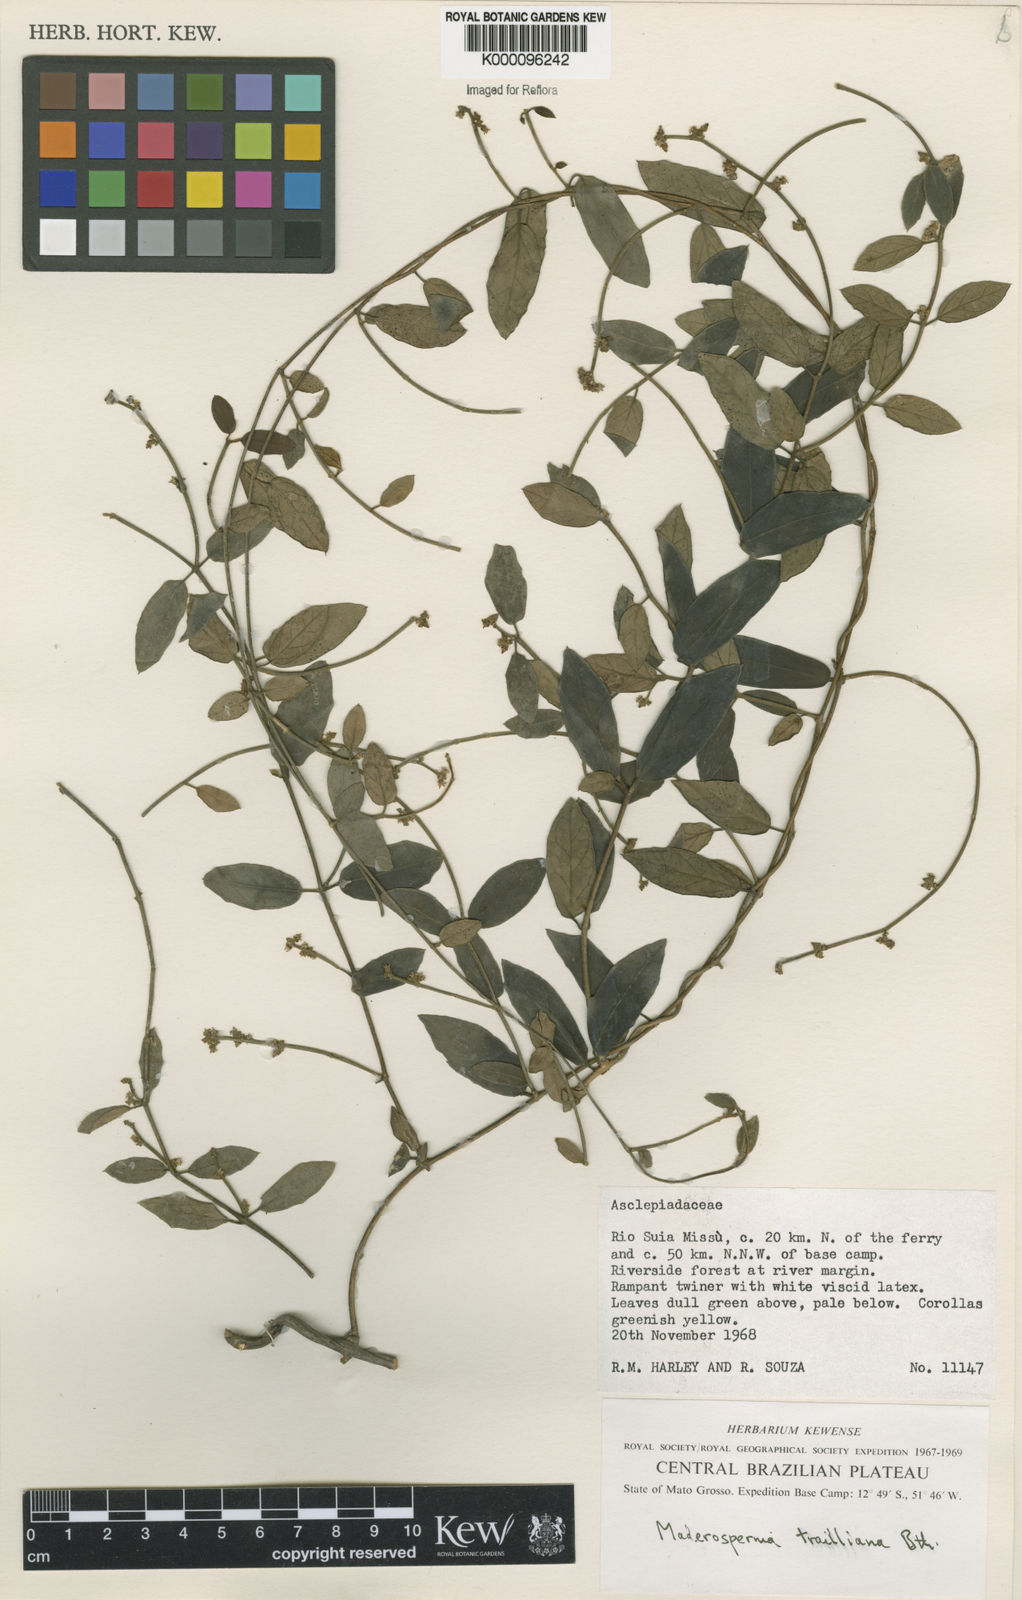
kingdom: Plantae
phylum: Tracheophyta
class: Magnoliopsida
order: Gentianales
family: Apocynaceae
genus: Tassadia
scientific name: Tassadia trailiana
